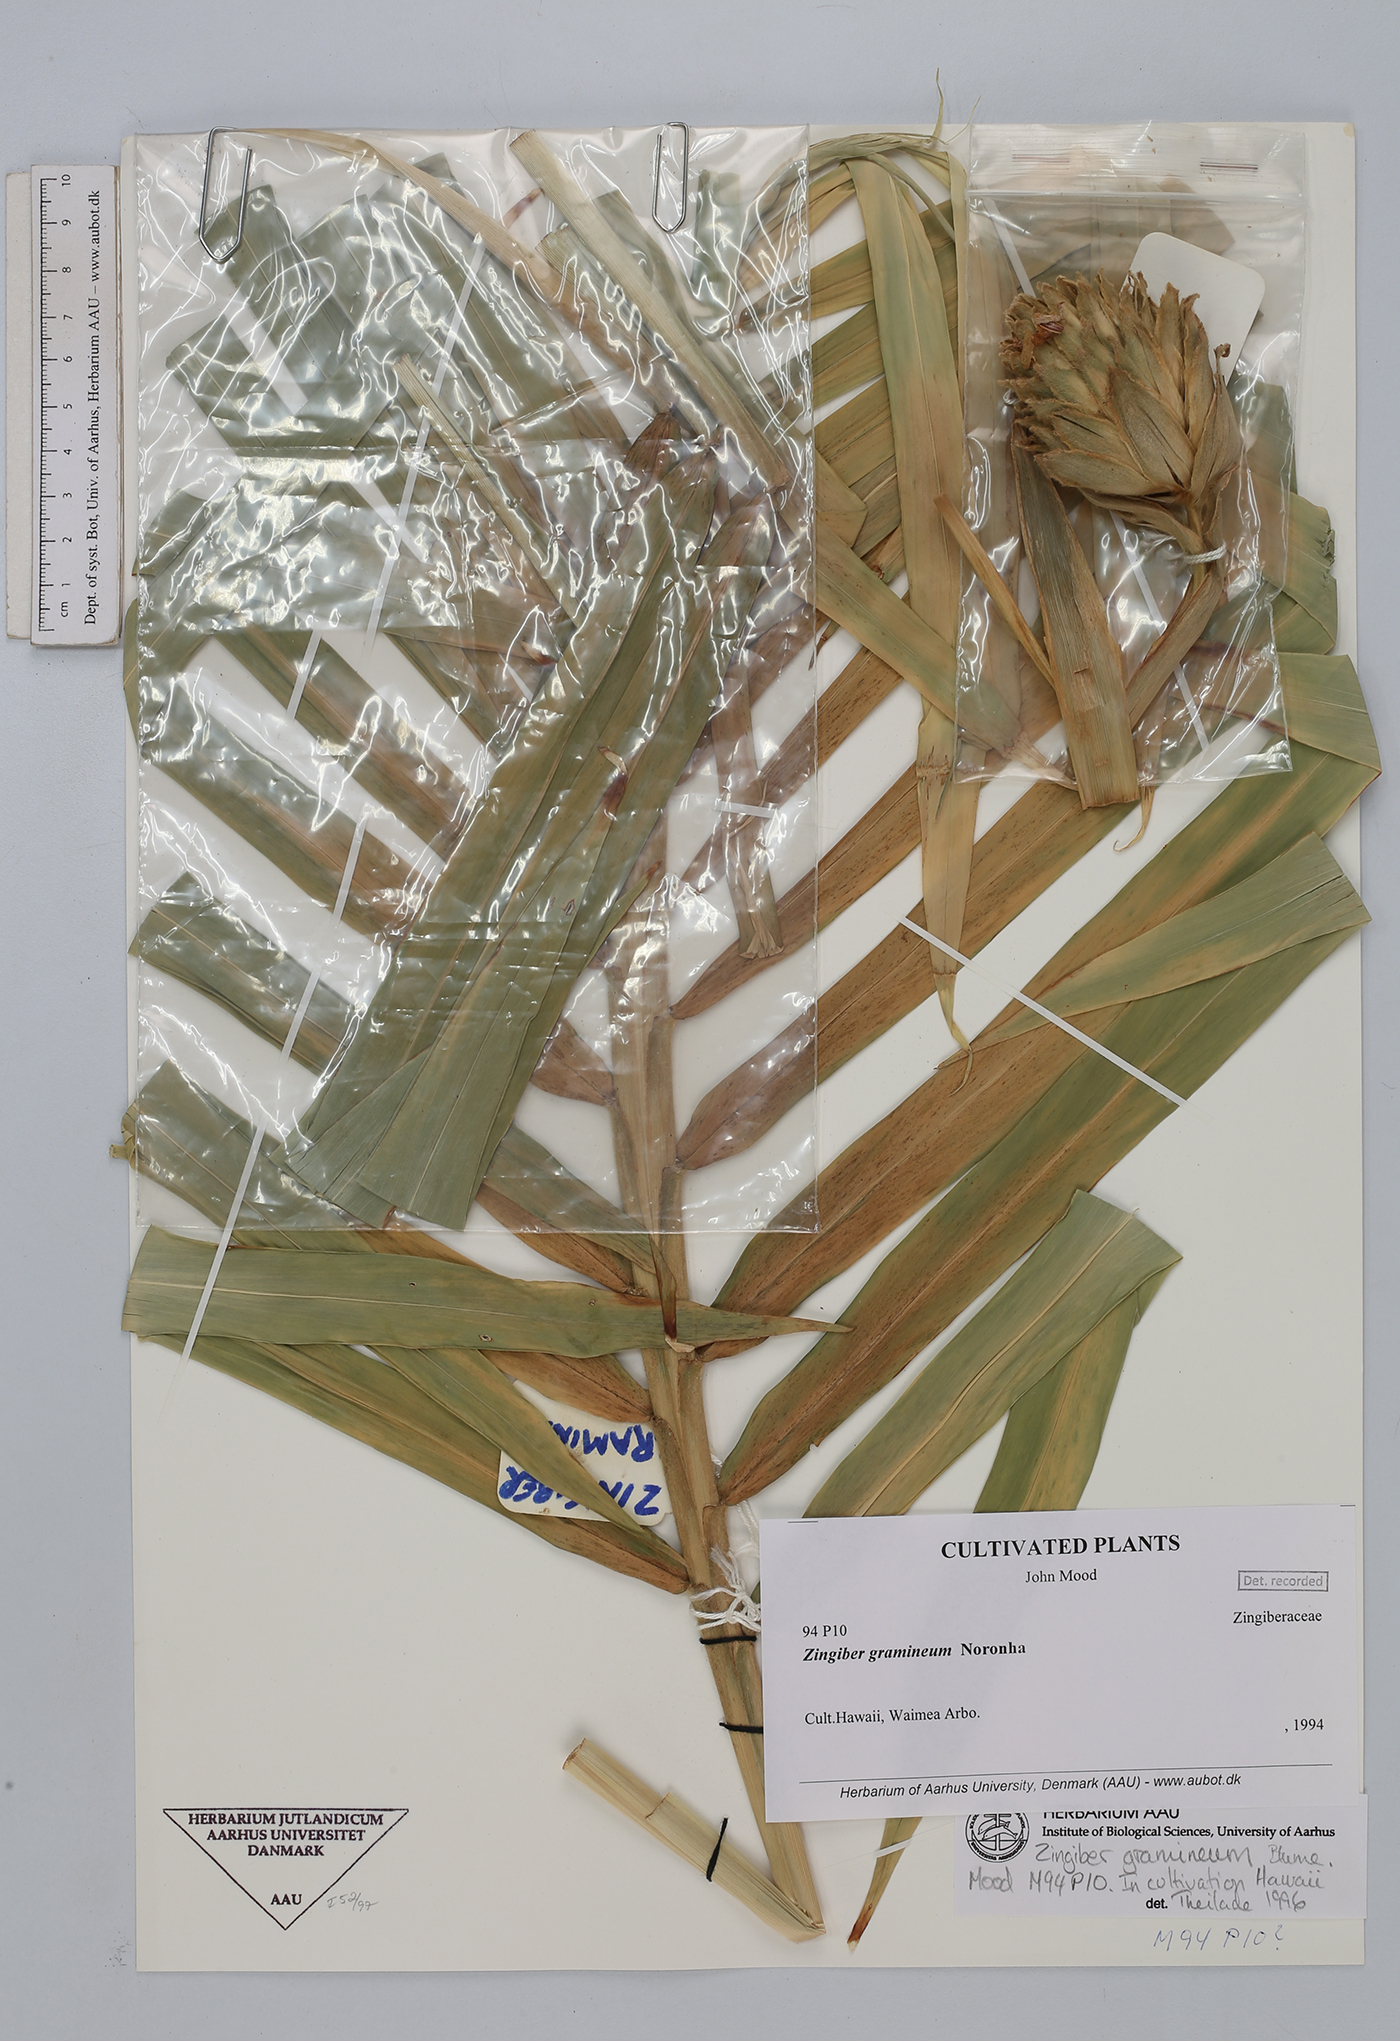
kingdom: Plantae
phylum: Tracheophyta
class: Liliopsida
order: Zingiberales
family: Zingiberaceae
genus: Zingiber
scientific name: Zingiber gramineum
